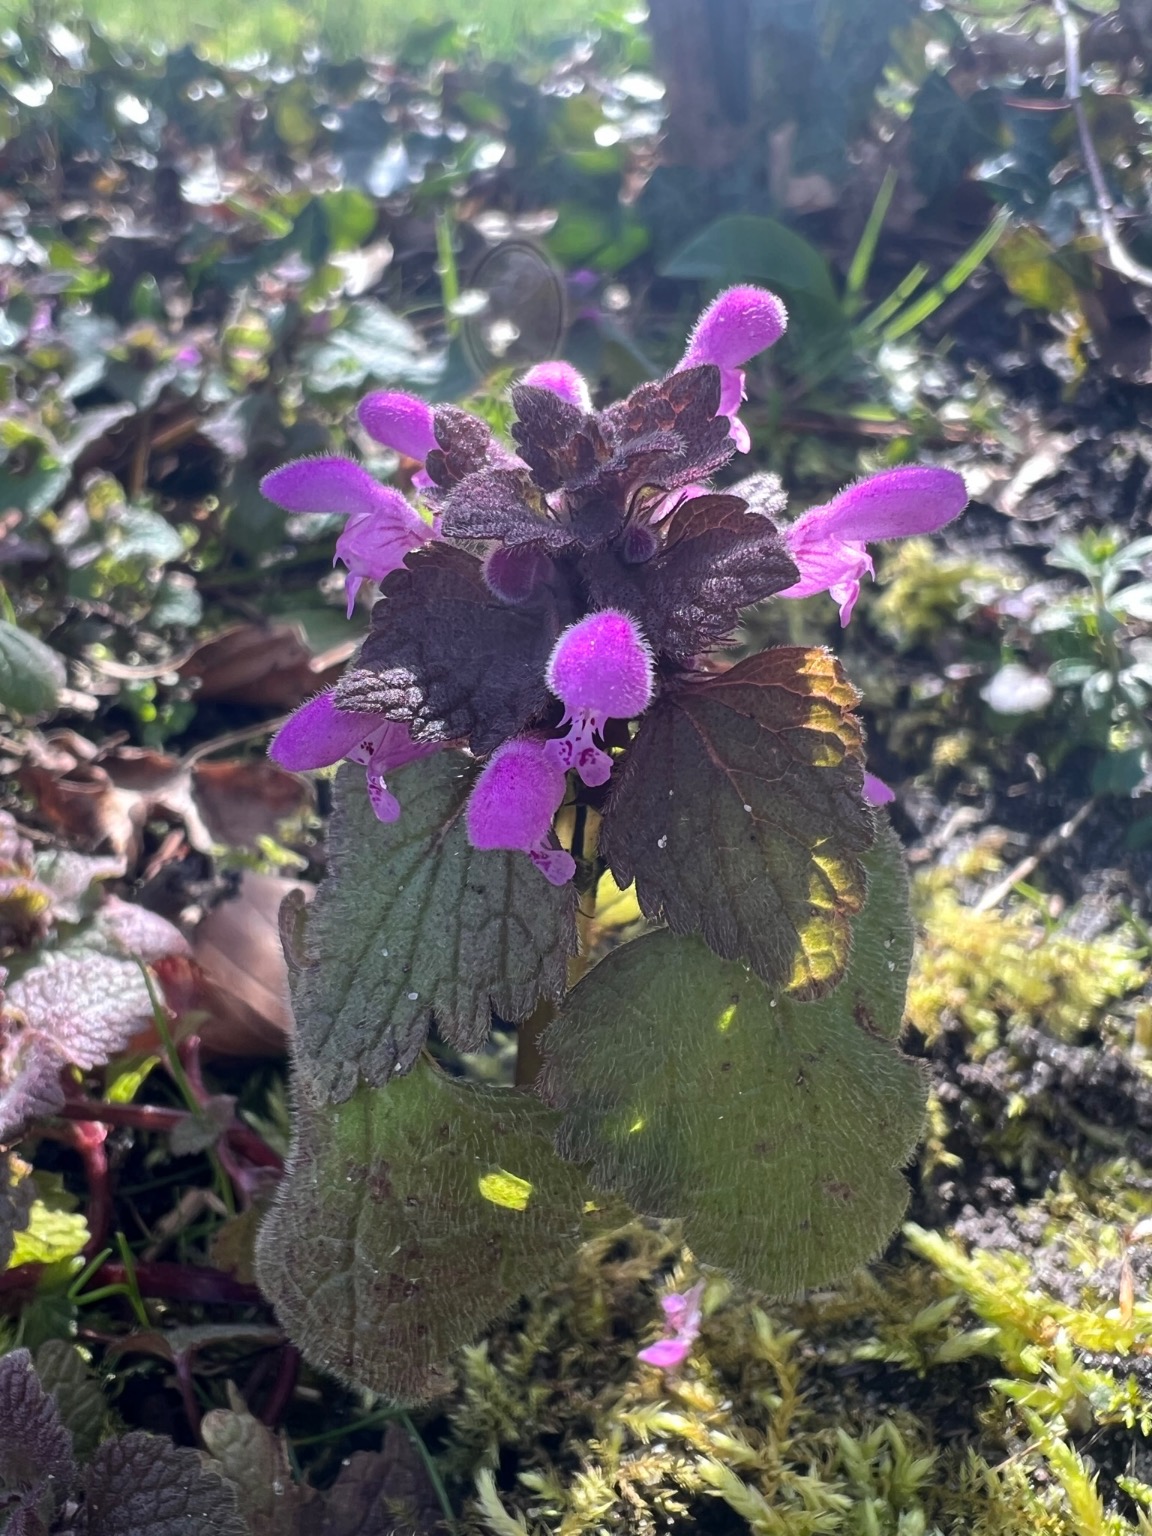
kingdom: Plantae
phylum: Tracheophyta
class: Magnoliopsida
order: Lamiales
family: Lamiaceae
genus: Lamium
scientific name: Lamium purpureum
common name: Rød tvetand
